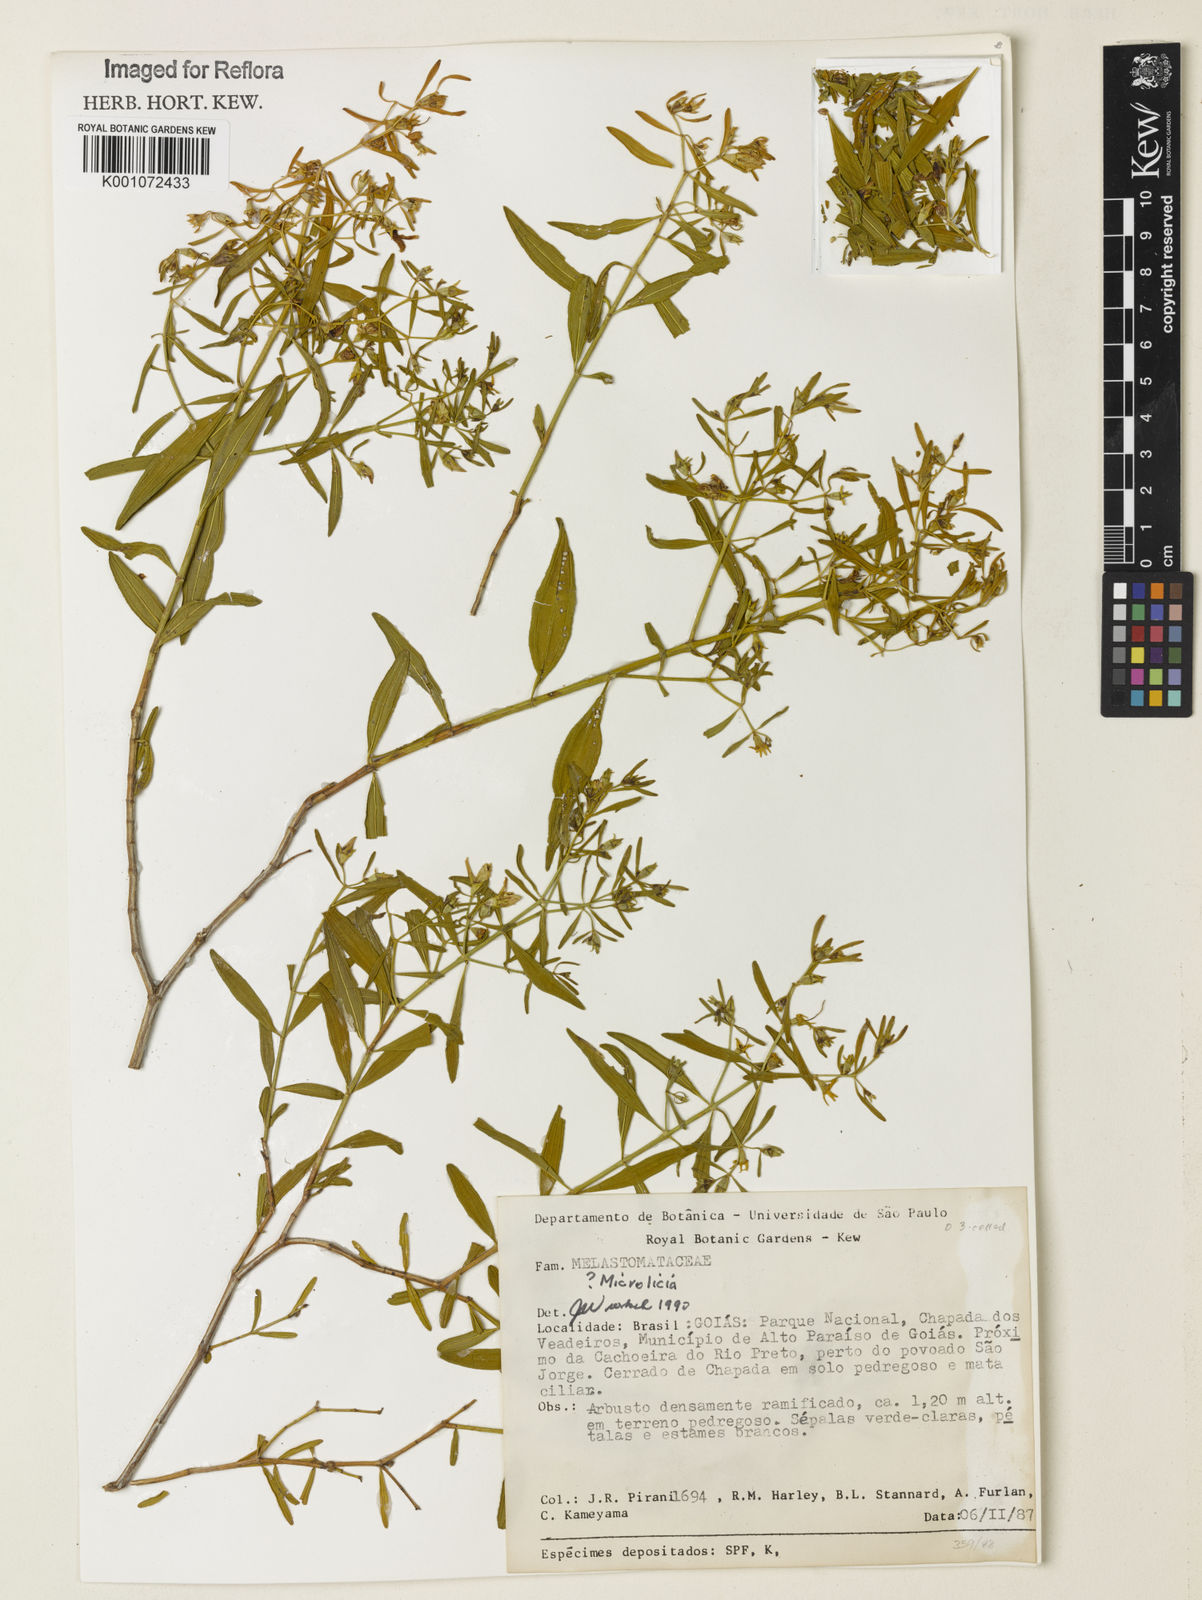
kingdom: Plantae
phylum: Tracheophyta
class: Magnoliopsida
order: Myrtales
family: Melastomataceae
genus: Microlicia
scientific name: Microlicia
